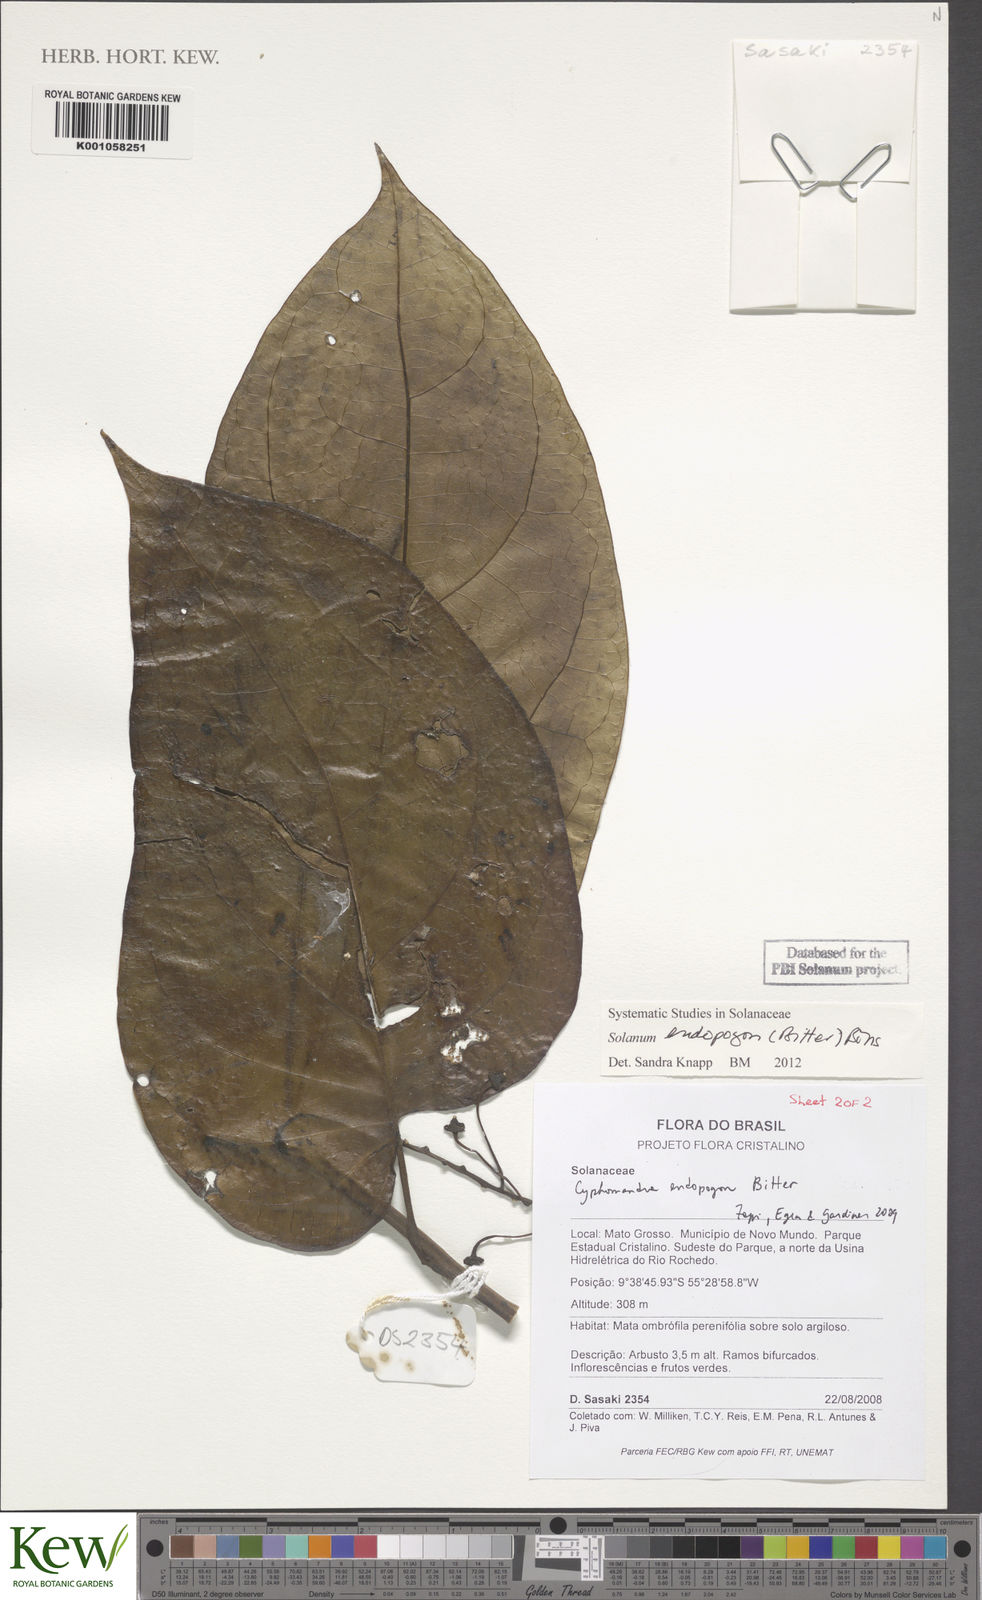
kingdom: Plantae
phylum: Tracheophyta
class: Magnoliopsida
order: Solanales
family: Solanaceae
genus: Solanum
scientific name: Solanum endopogon
